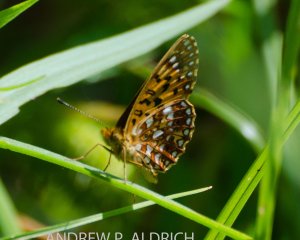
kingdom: Animalia
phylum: Arthropoda
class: Insecta
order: Lepidoptera
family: Nymphalidae
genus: Boloria
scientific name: Boloria selene
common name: Silver-bordered Fritillary
